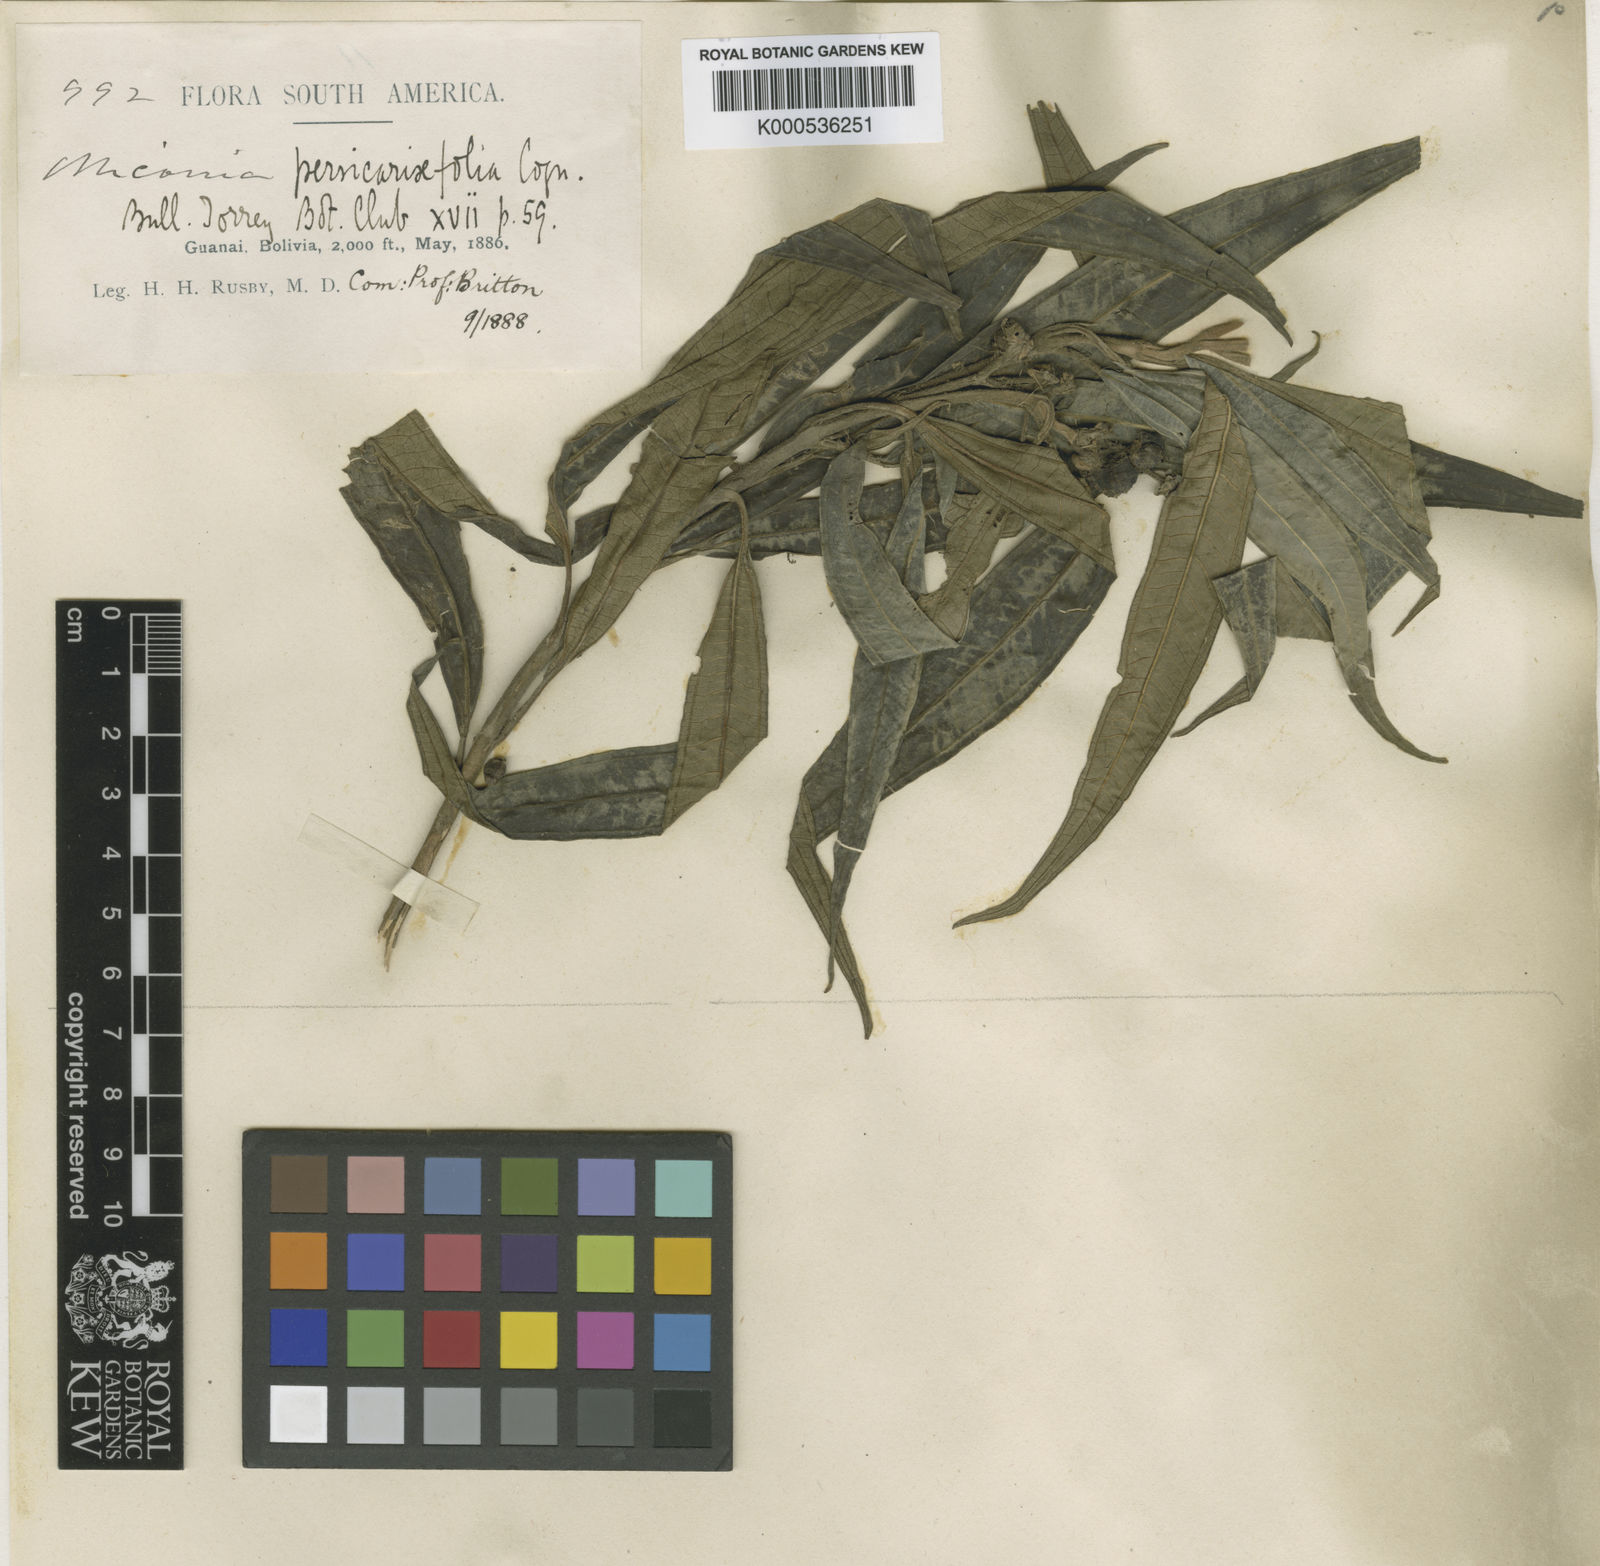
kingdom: Plantae
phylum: Tracheophyta
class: Magnoliopsida
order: Myrtales
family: Melastomataceae
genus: Miconia
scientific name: Miconia
